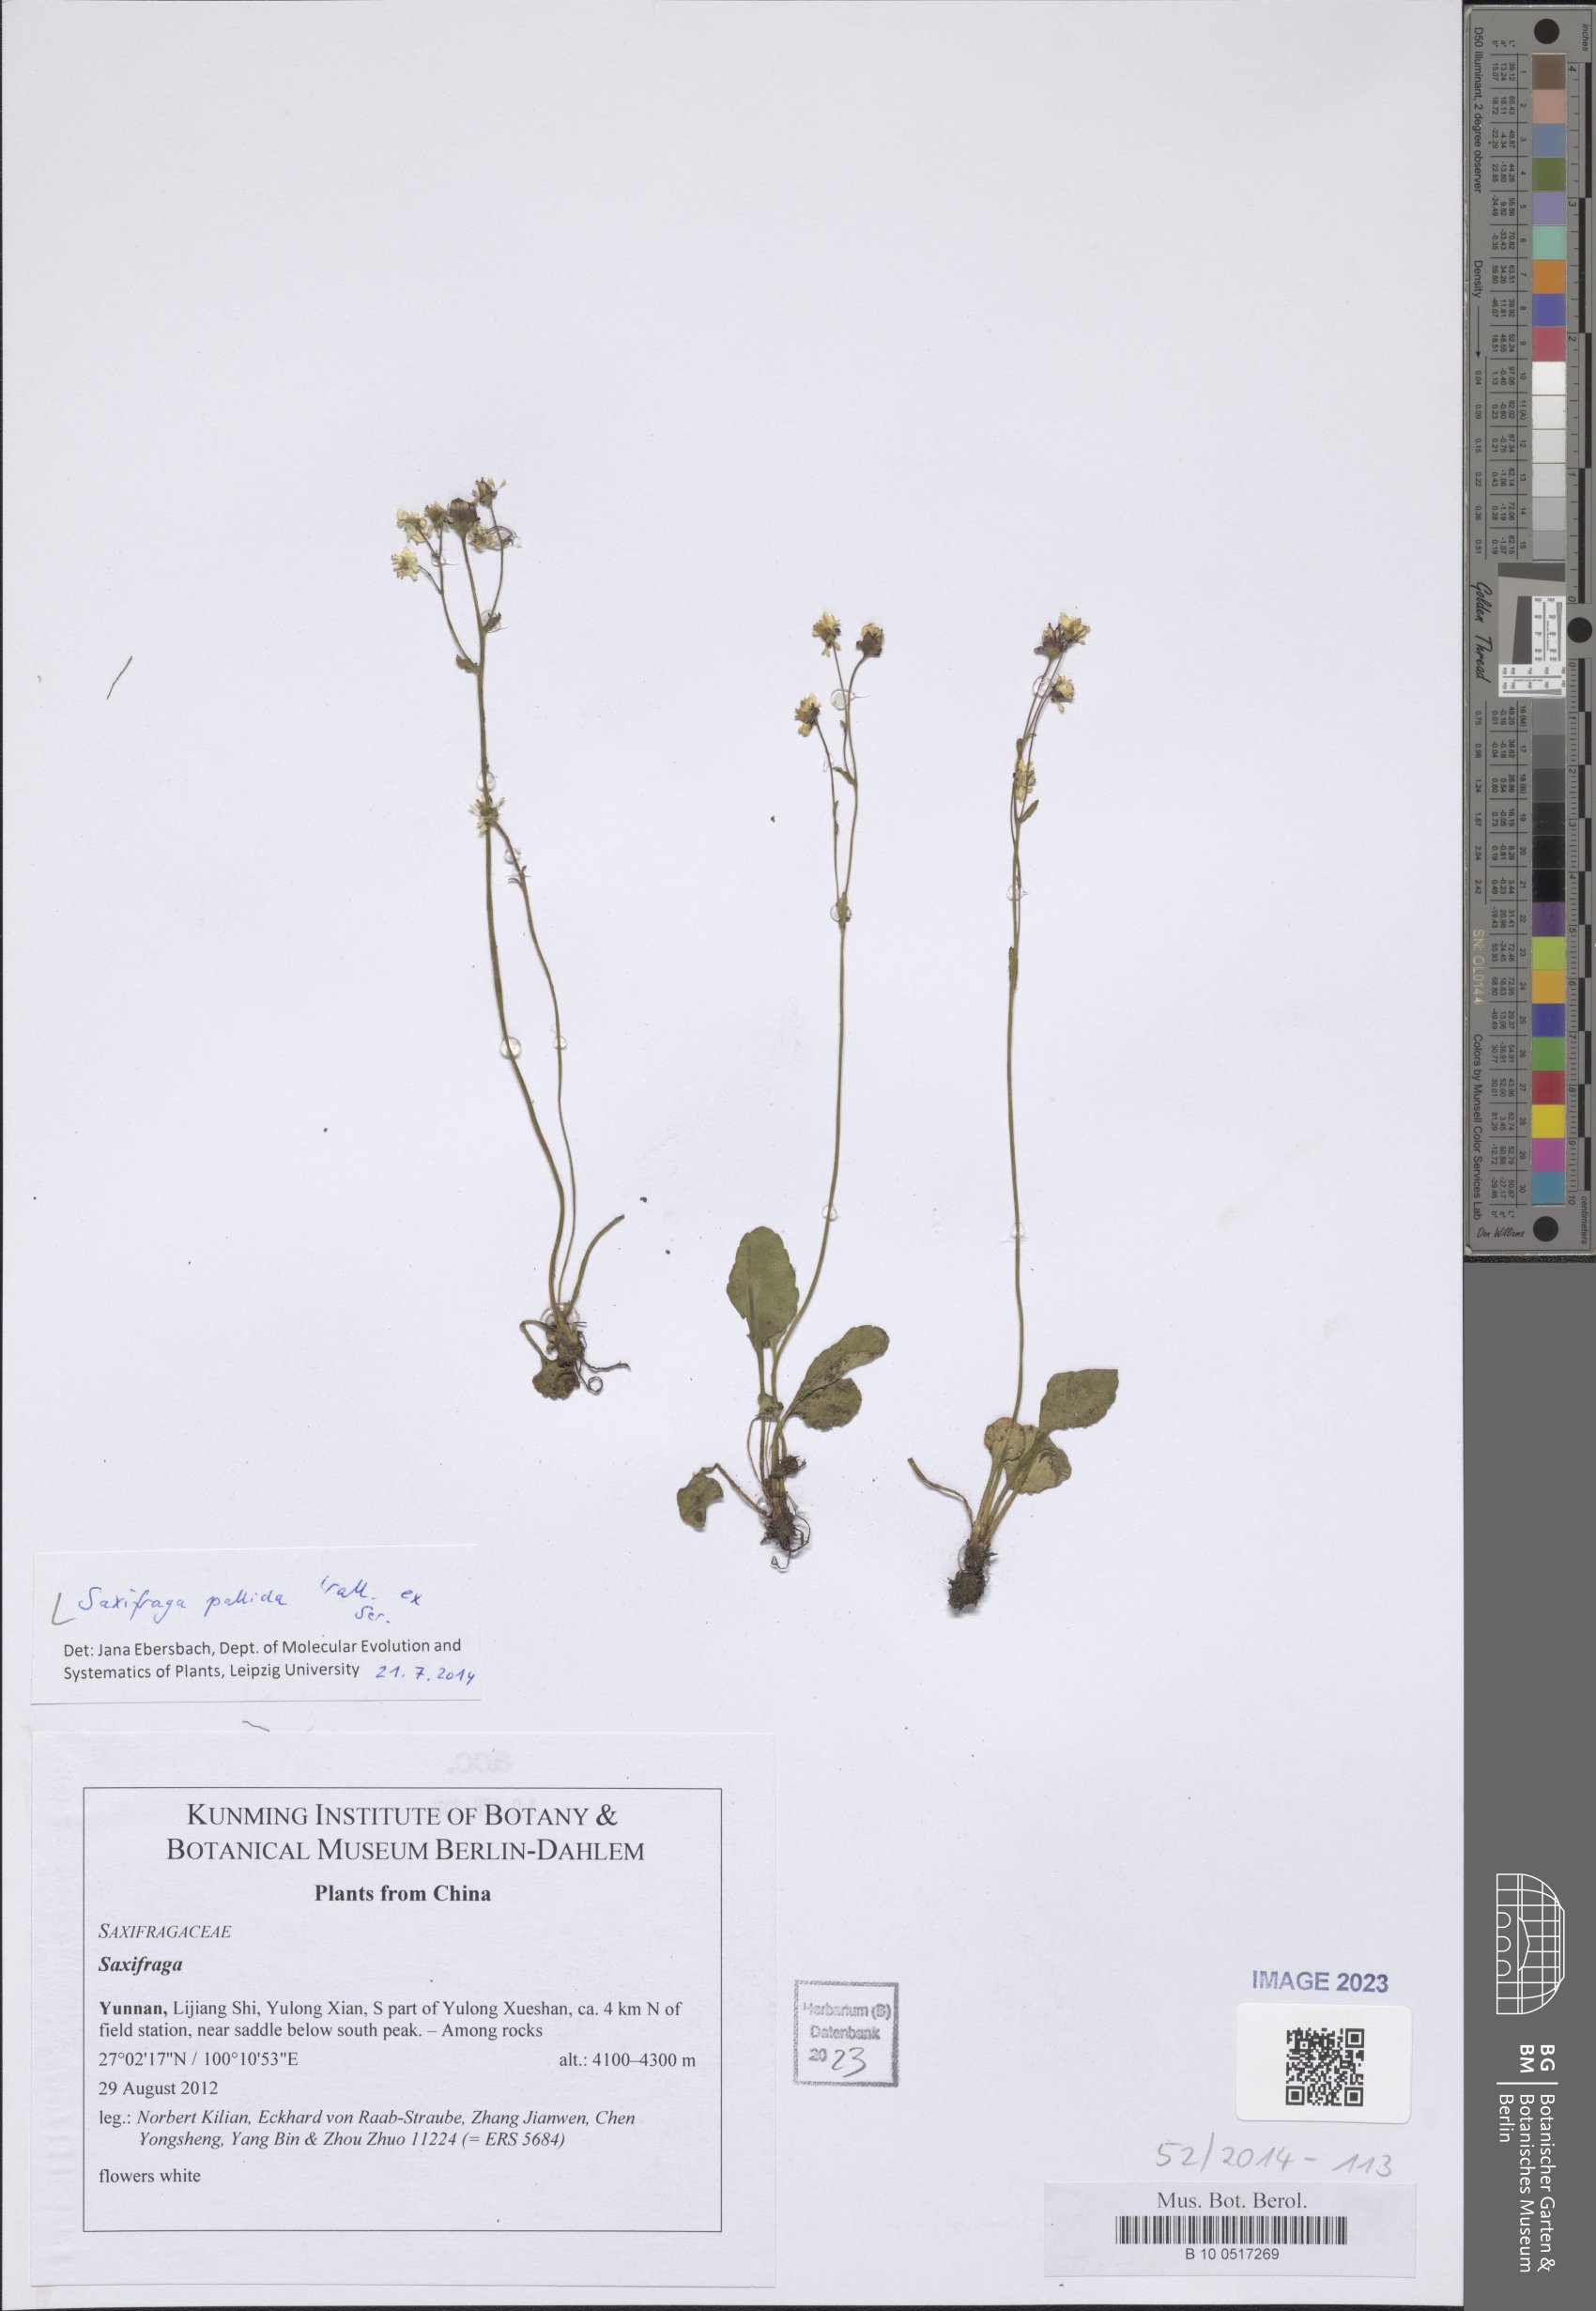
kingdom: Plantae
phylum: Tracheophyta
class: Magnoliopsida
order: Saxifragales
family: Saxifragaceae
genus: Micranthes
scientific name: Micranthes pallida
